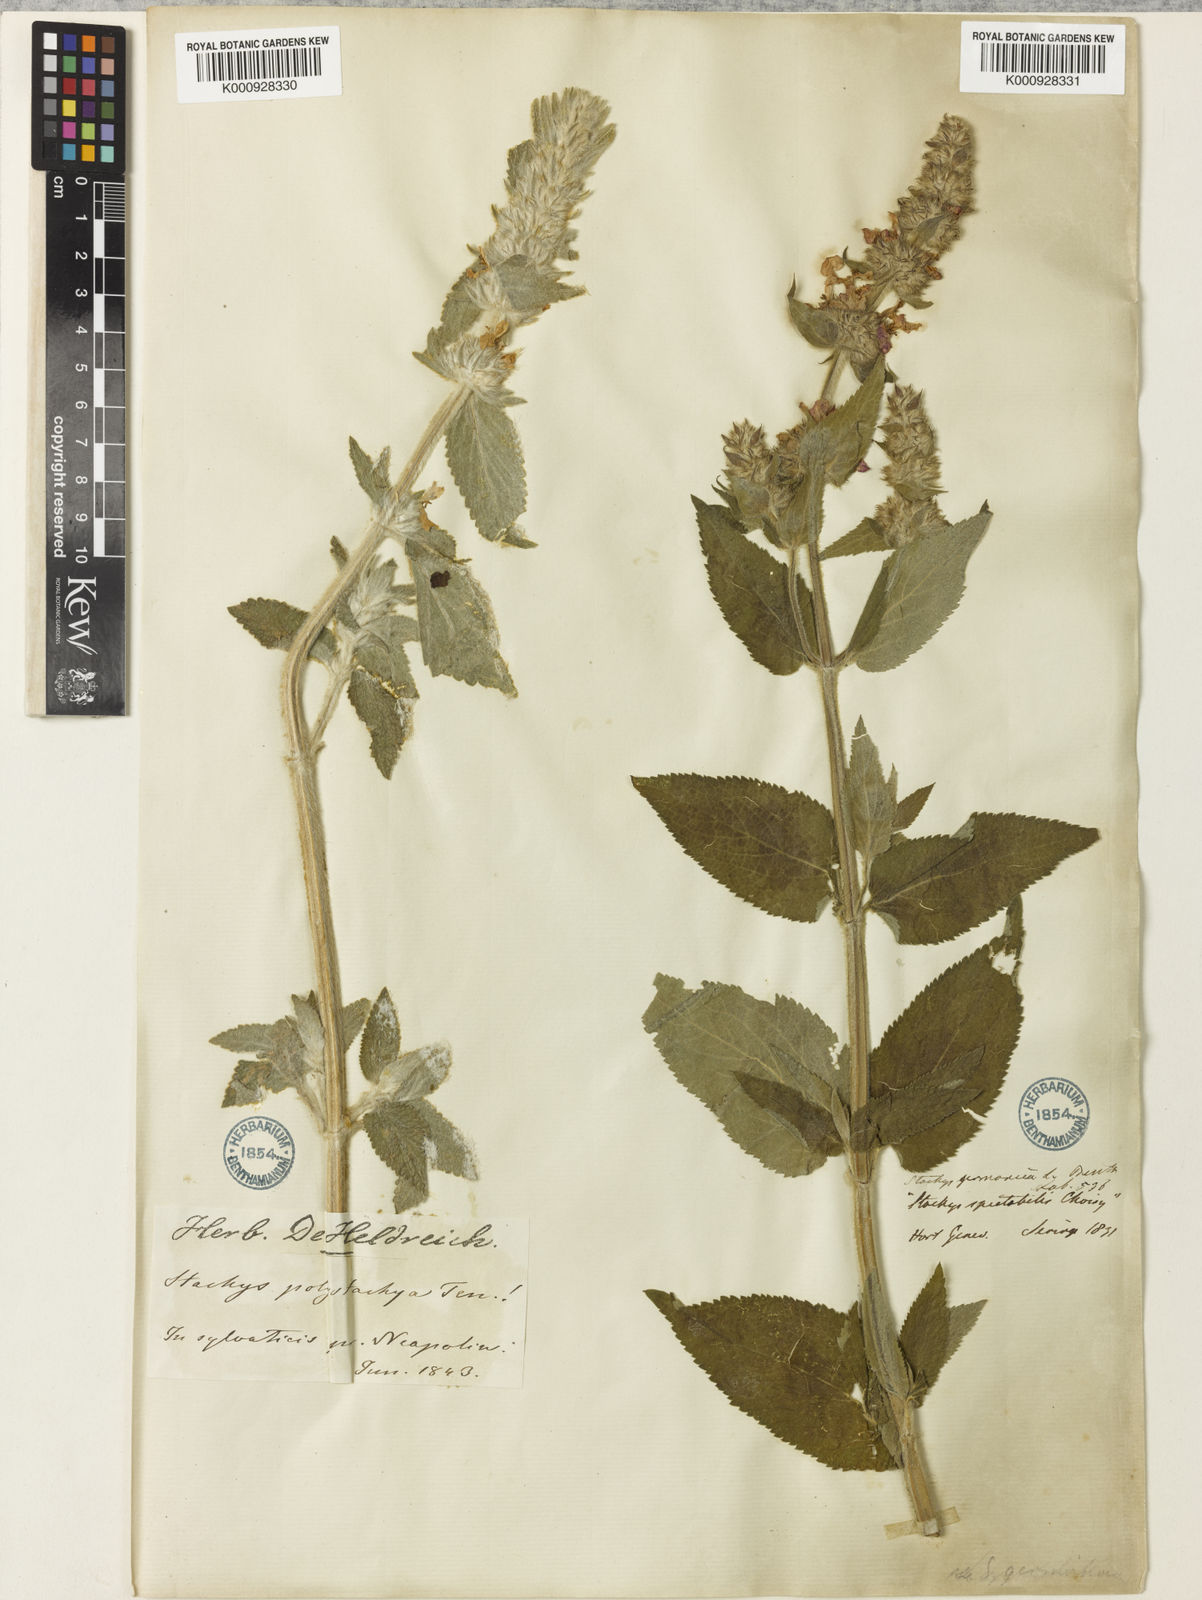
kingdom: Plantae
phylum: Tracheophyta
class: Magnoliopsida
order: Lamiales
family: Lamiaceae
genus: Stachys
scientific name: Stachys germanica
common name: Downy woundwort
